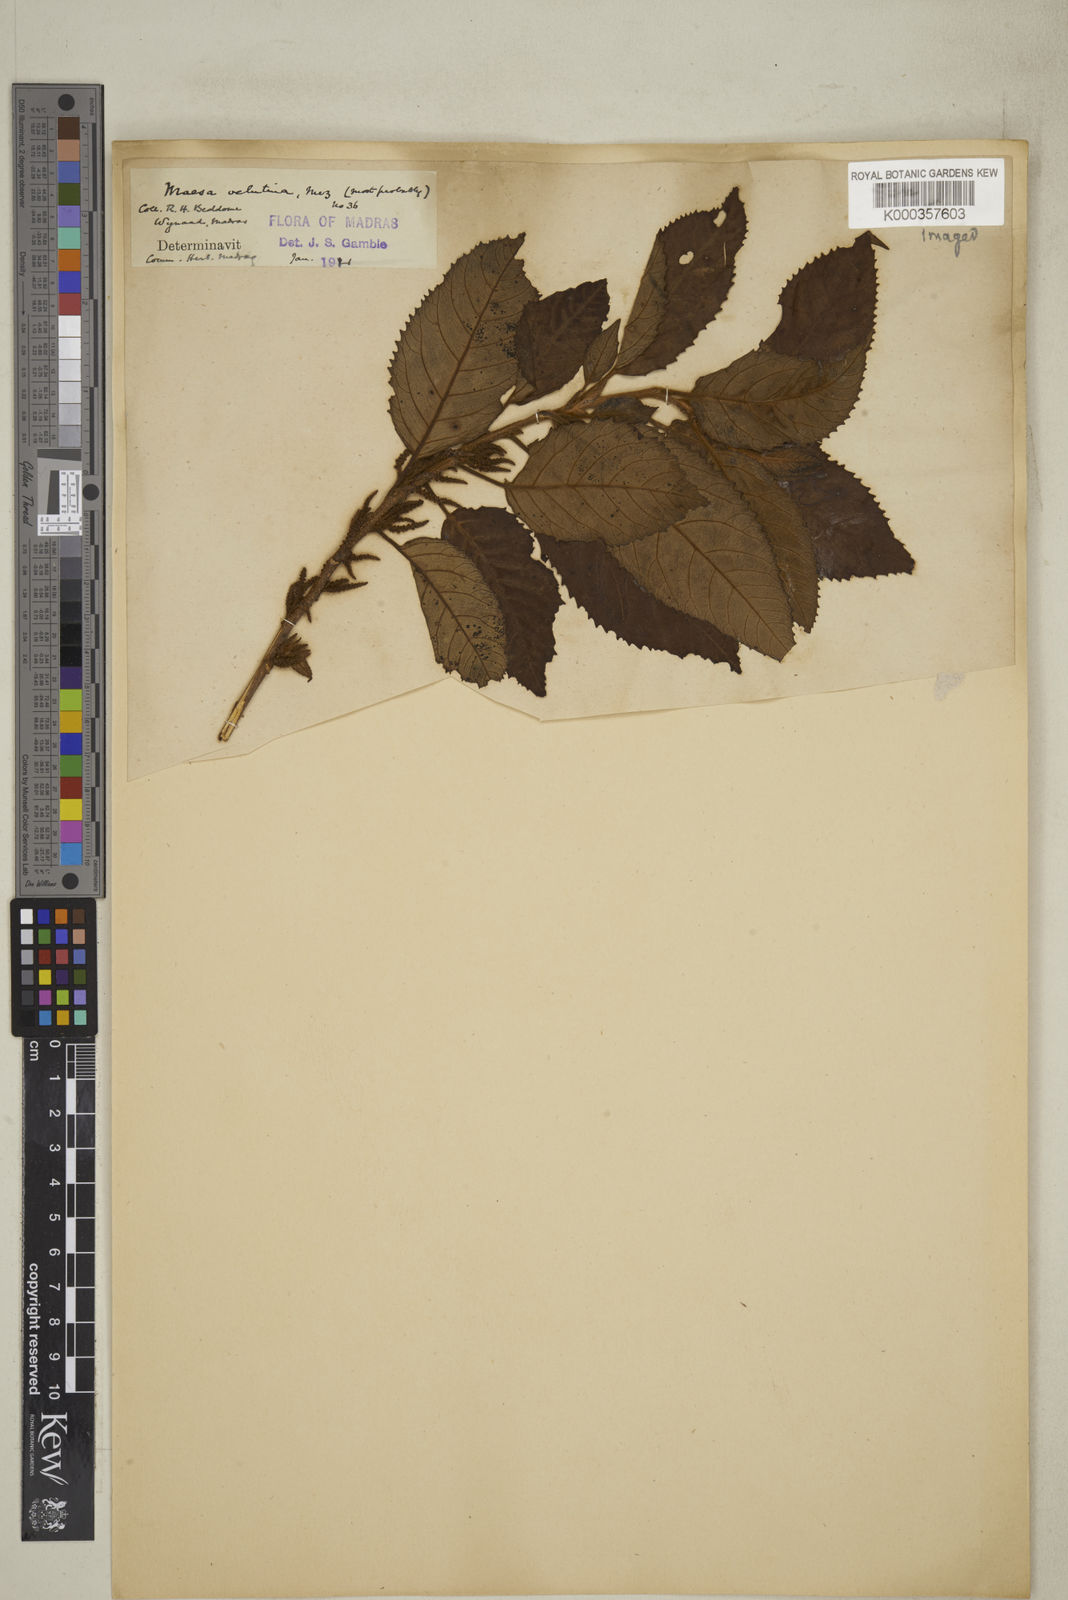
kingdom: Plantae
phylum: Tracheophyta
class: Magnoliopsida
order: Ericales
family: Primulaceae
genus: Maesa
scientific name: Maesa
